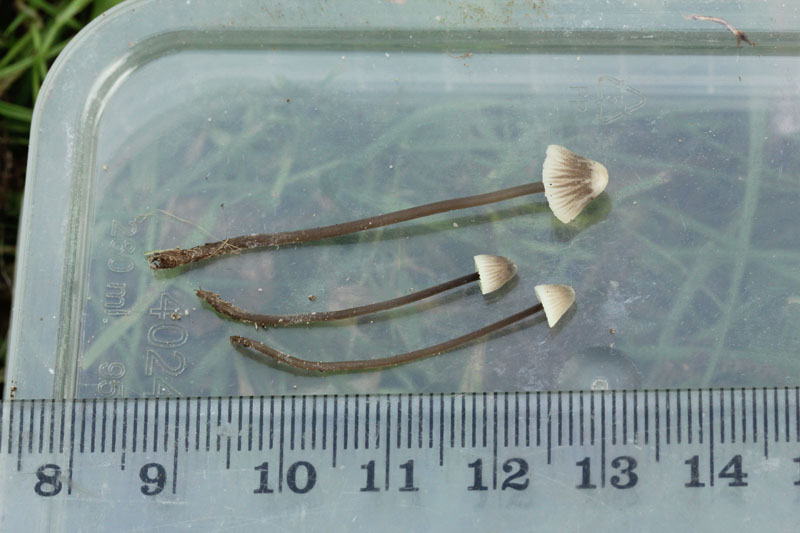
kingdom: Fungi
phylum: Basidiomycota
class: Agaricomycetes
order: Agaricales
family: Mycenaceae
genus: Mycena
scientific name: Mycena flavescens
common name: grågul huesvamp
